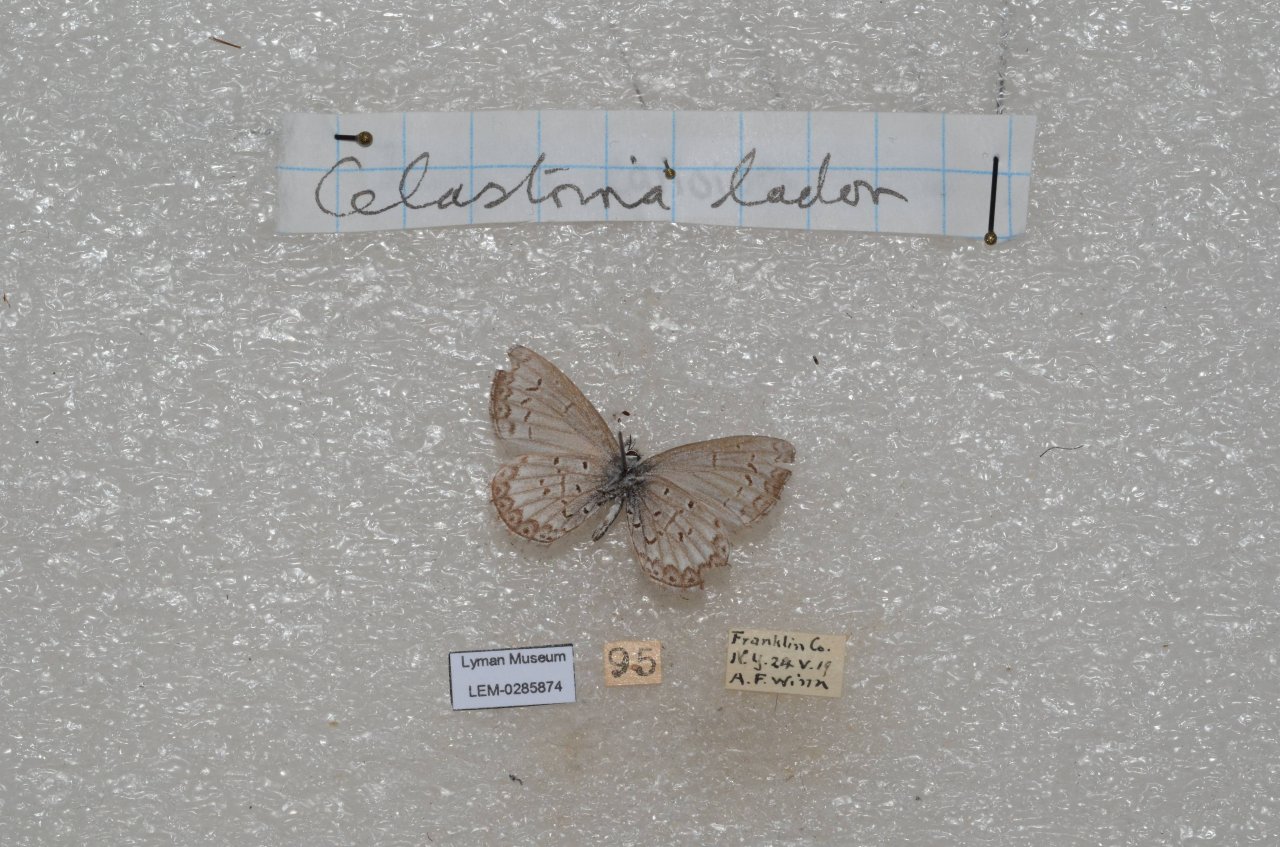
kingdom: Animalia
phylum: Arthropoda
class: Insecta
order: Lepidoptera
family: Lycaenidae
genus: Celastrina
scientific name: Celastrina ladon
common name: Spring Azure
